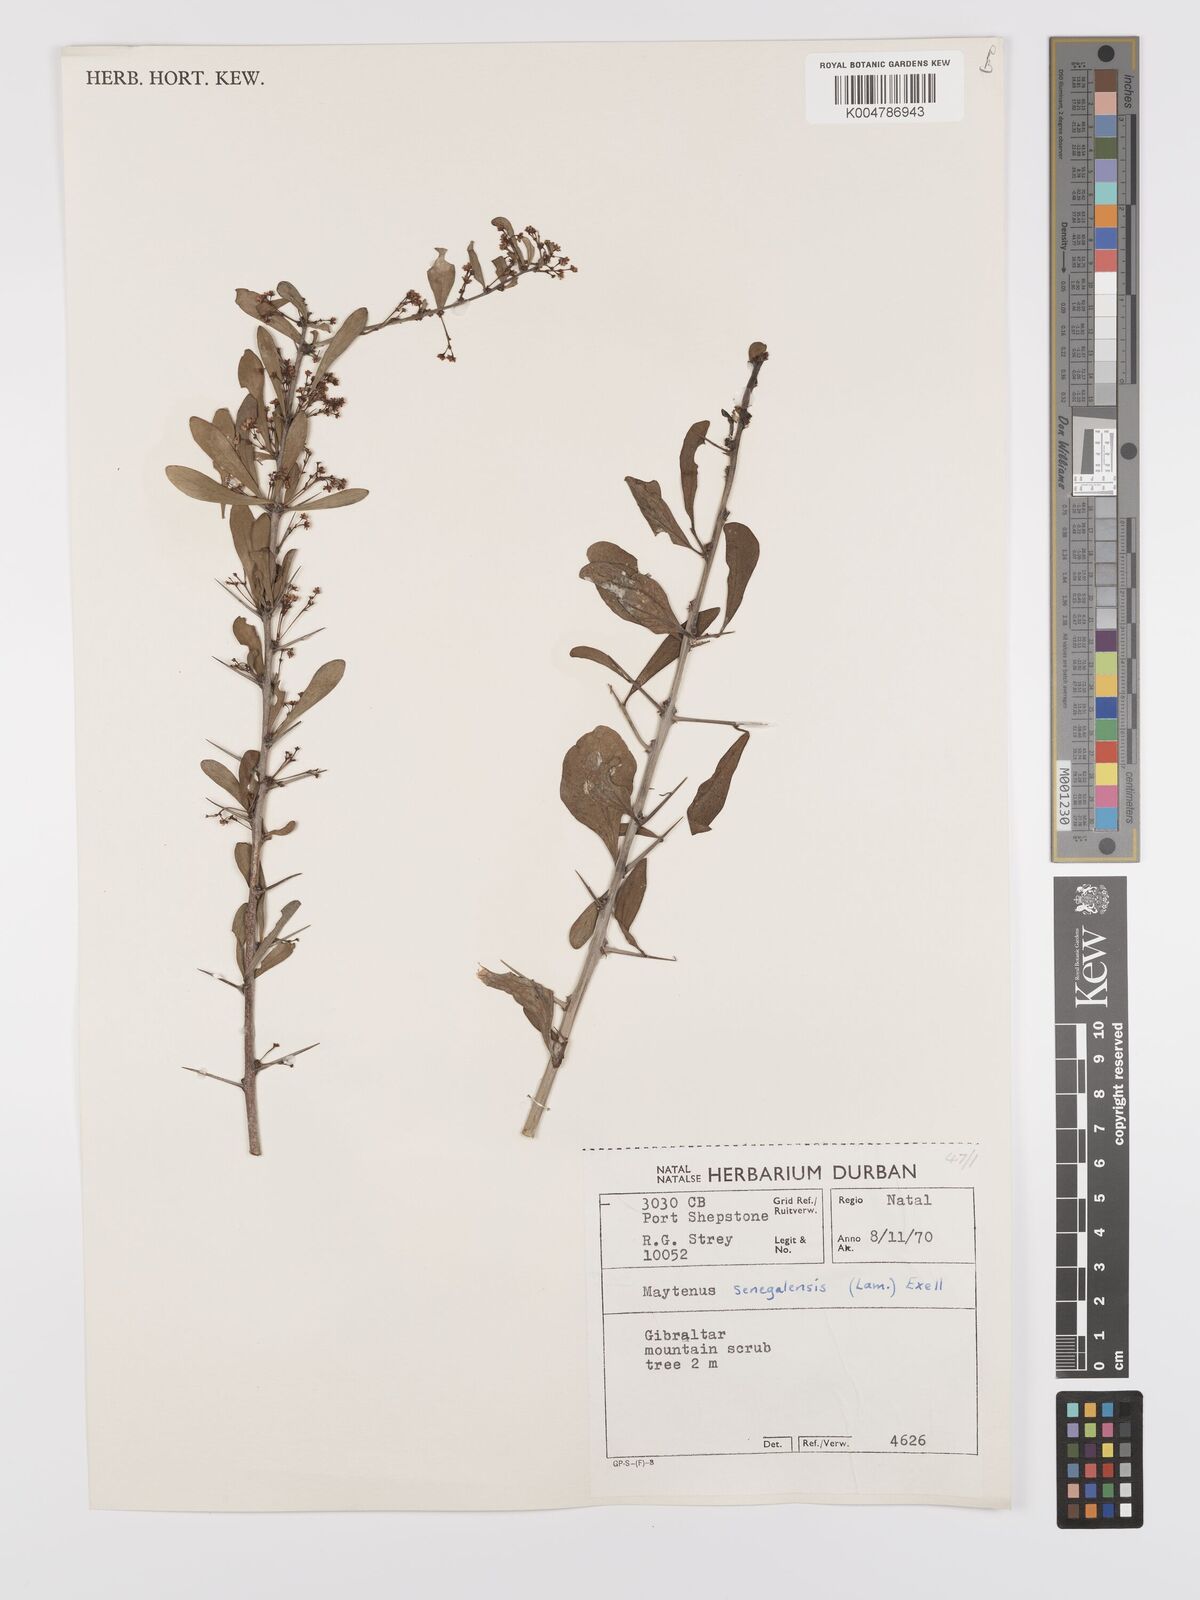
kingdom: Plantae
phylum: Tracheophyta
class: Magnoliopsida
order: Celastrales
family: Celastraceae
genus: Gymnosporia
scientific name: Gymnosporia senegalensis
